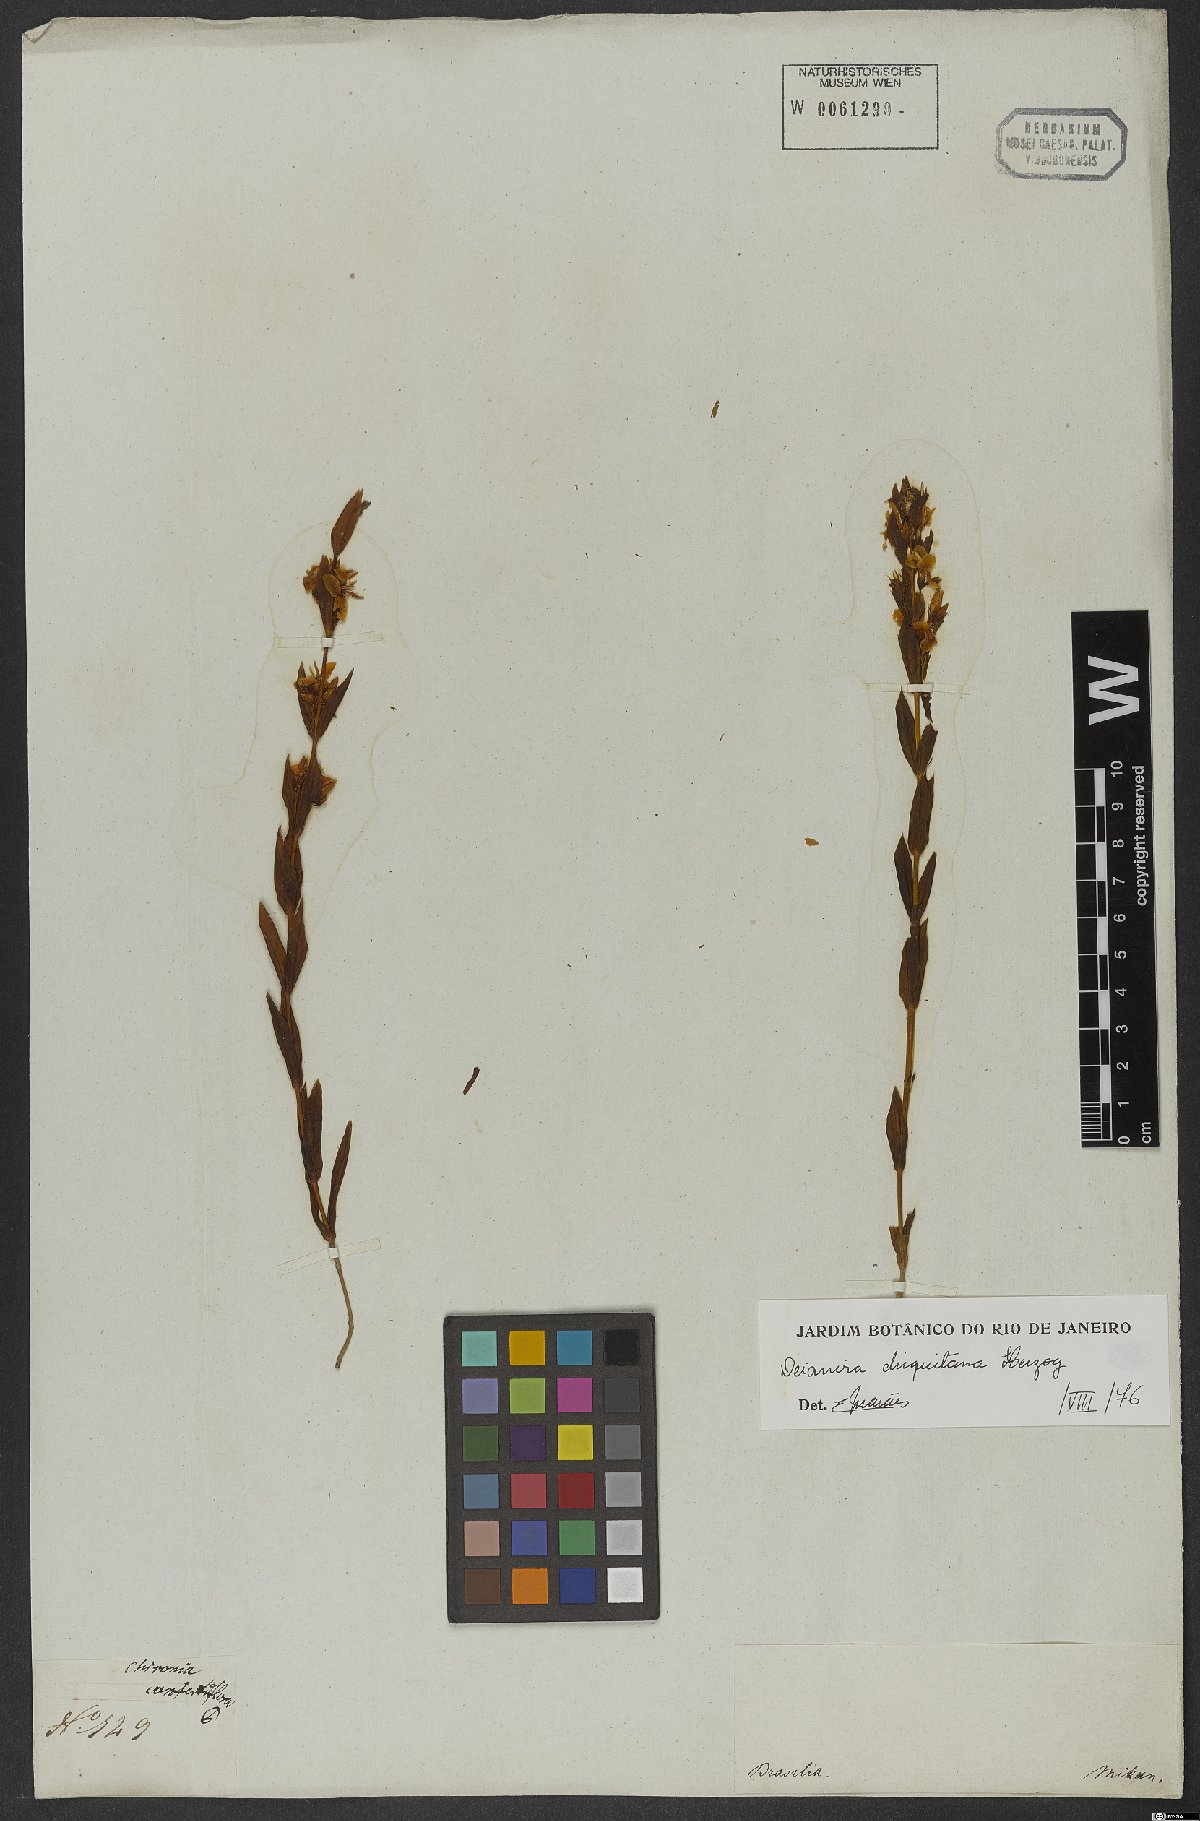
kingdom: Plantae
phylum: Tracheophyta
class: Magnoliopsida
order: Gentianales
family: Gentianaceae
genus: Deianira
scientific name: Deianira chiquitana
